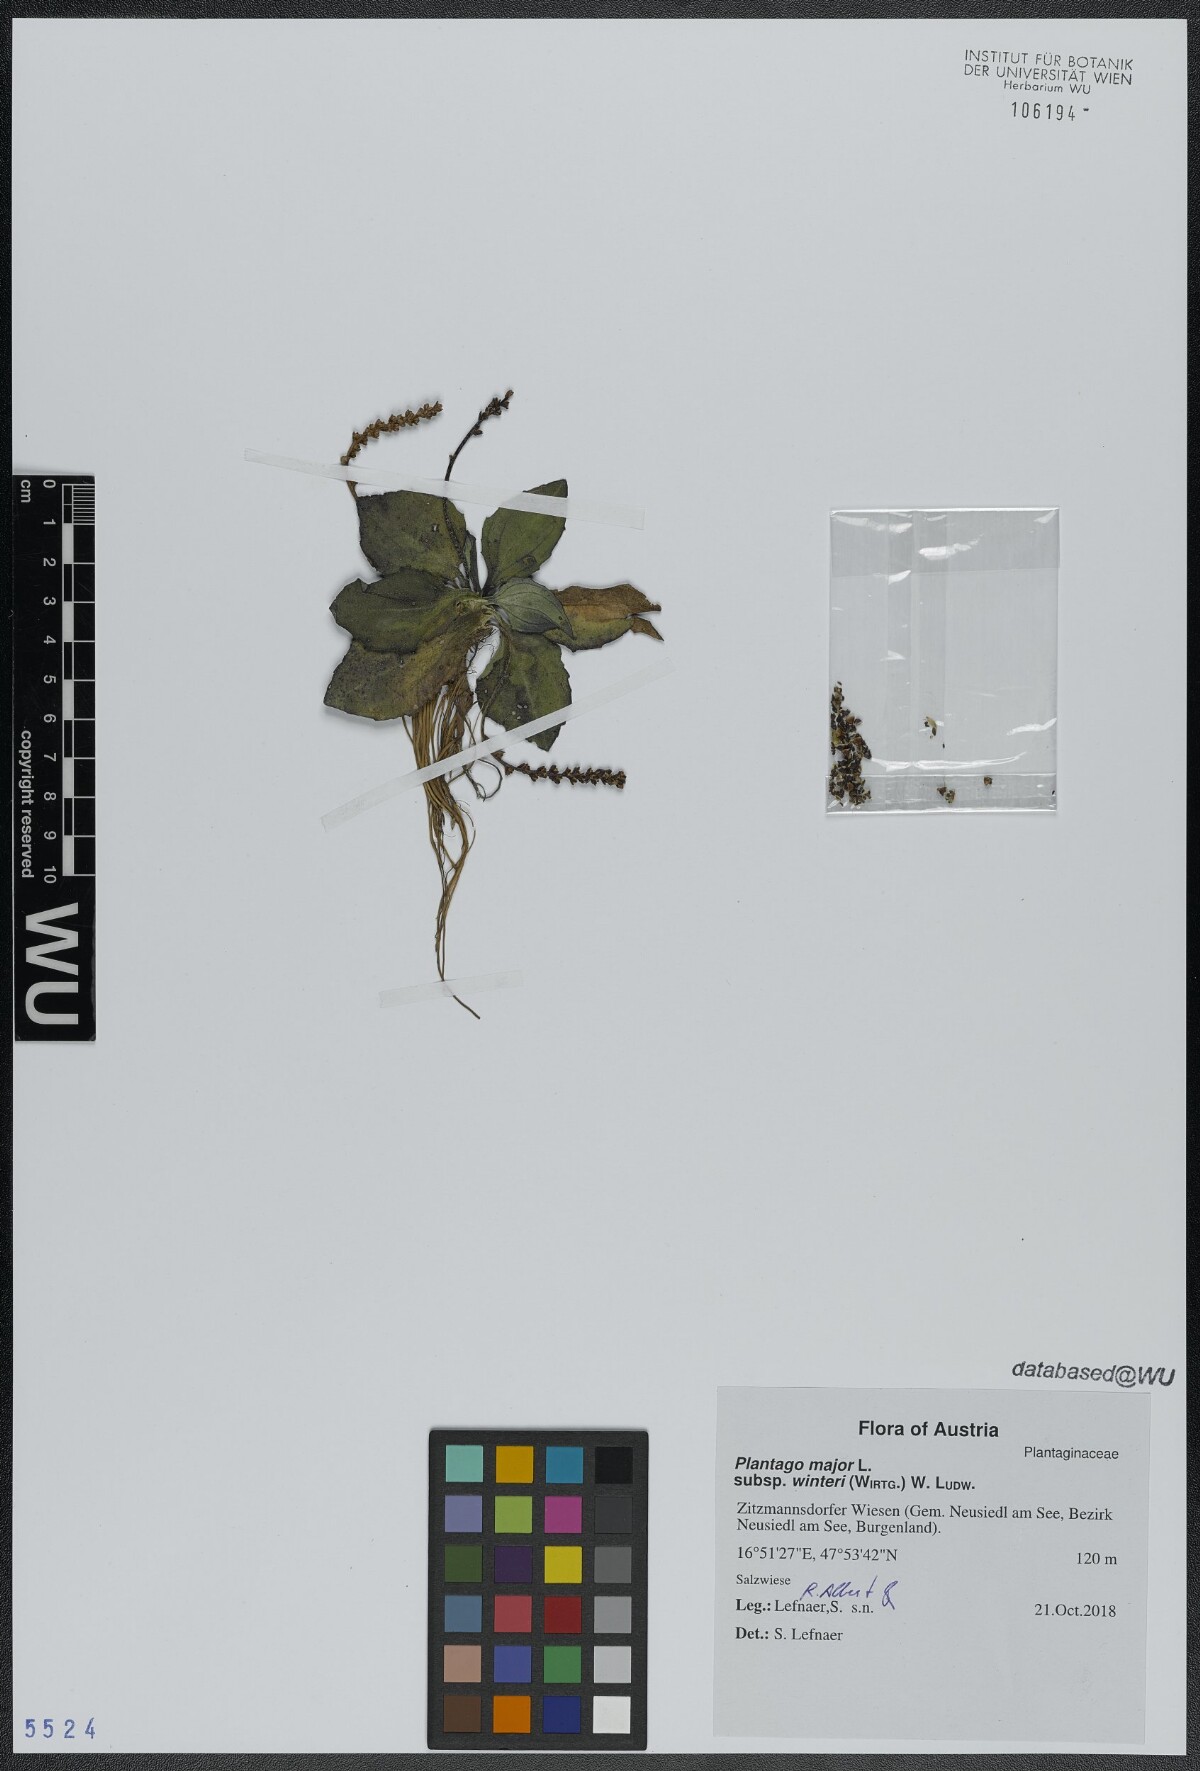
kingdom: Plantae
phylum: Tracheophyta
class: Magnoliopsida
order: Lamiales
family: Plantaginaceae
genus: Plantago
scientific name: Plantago uliginosa
